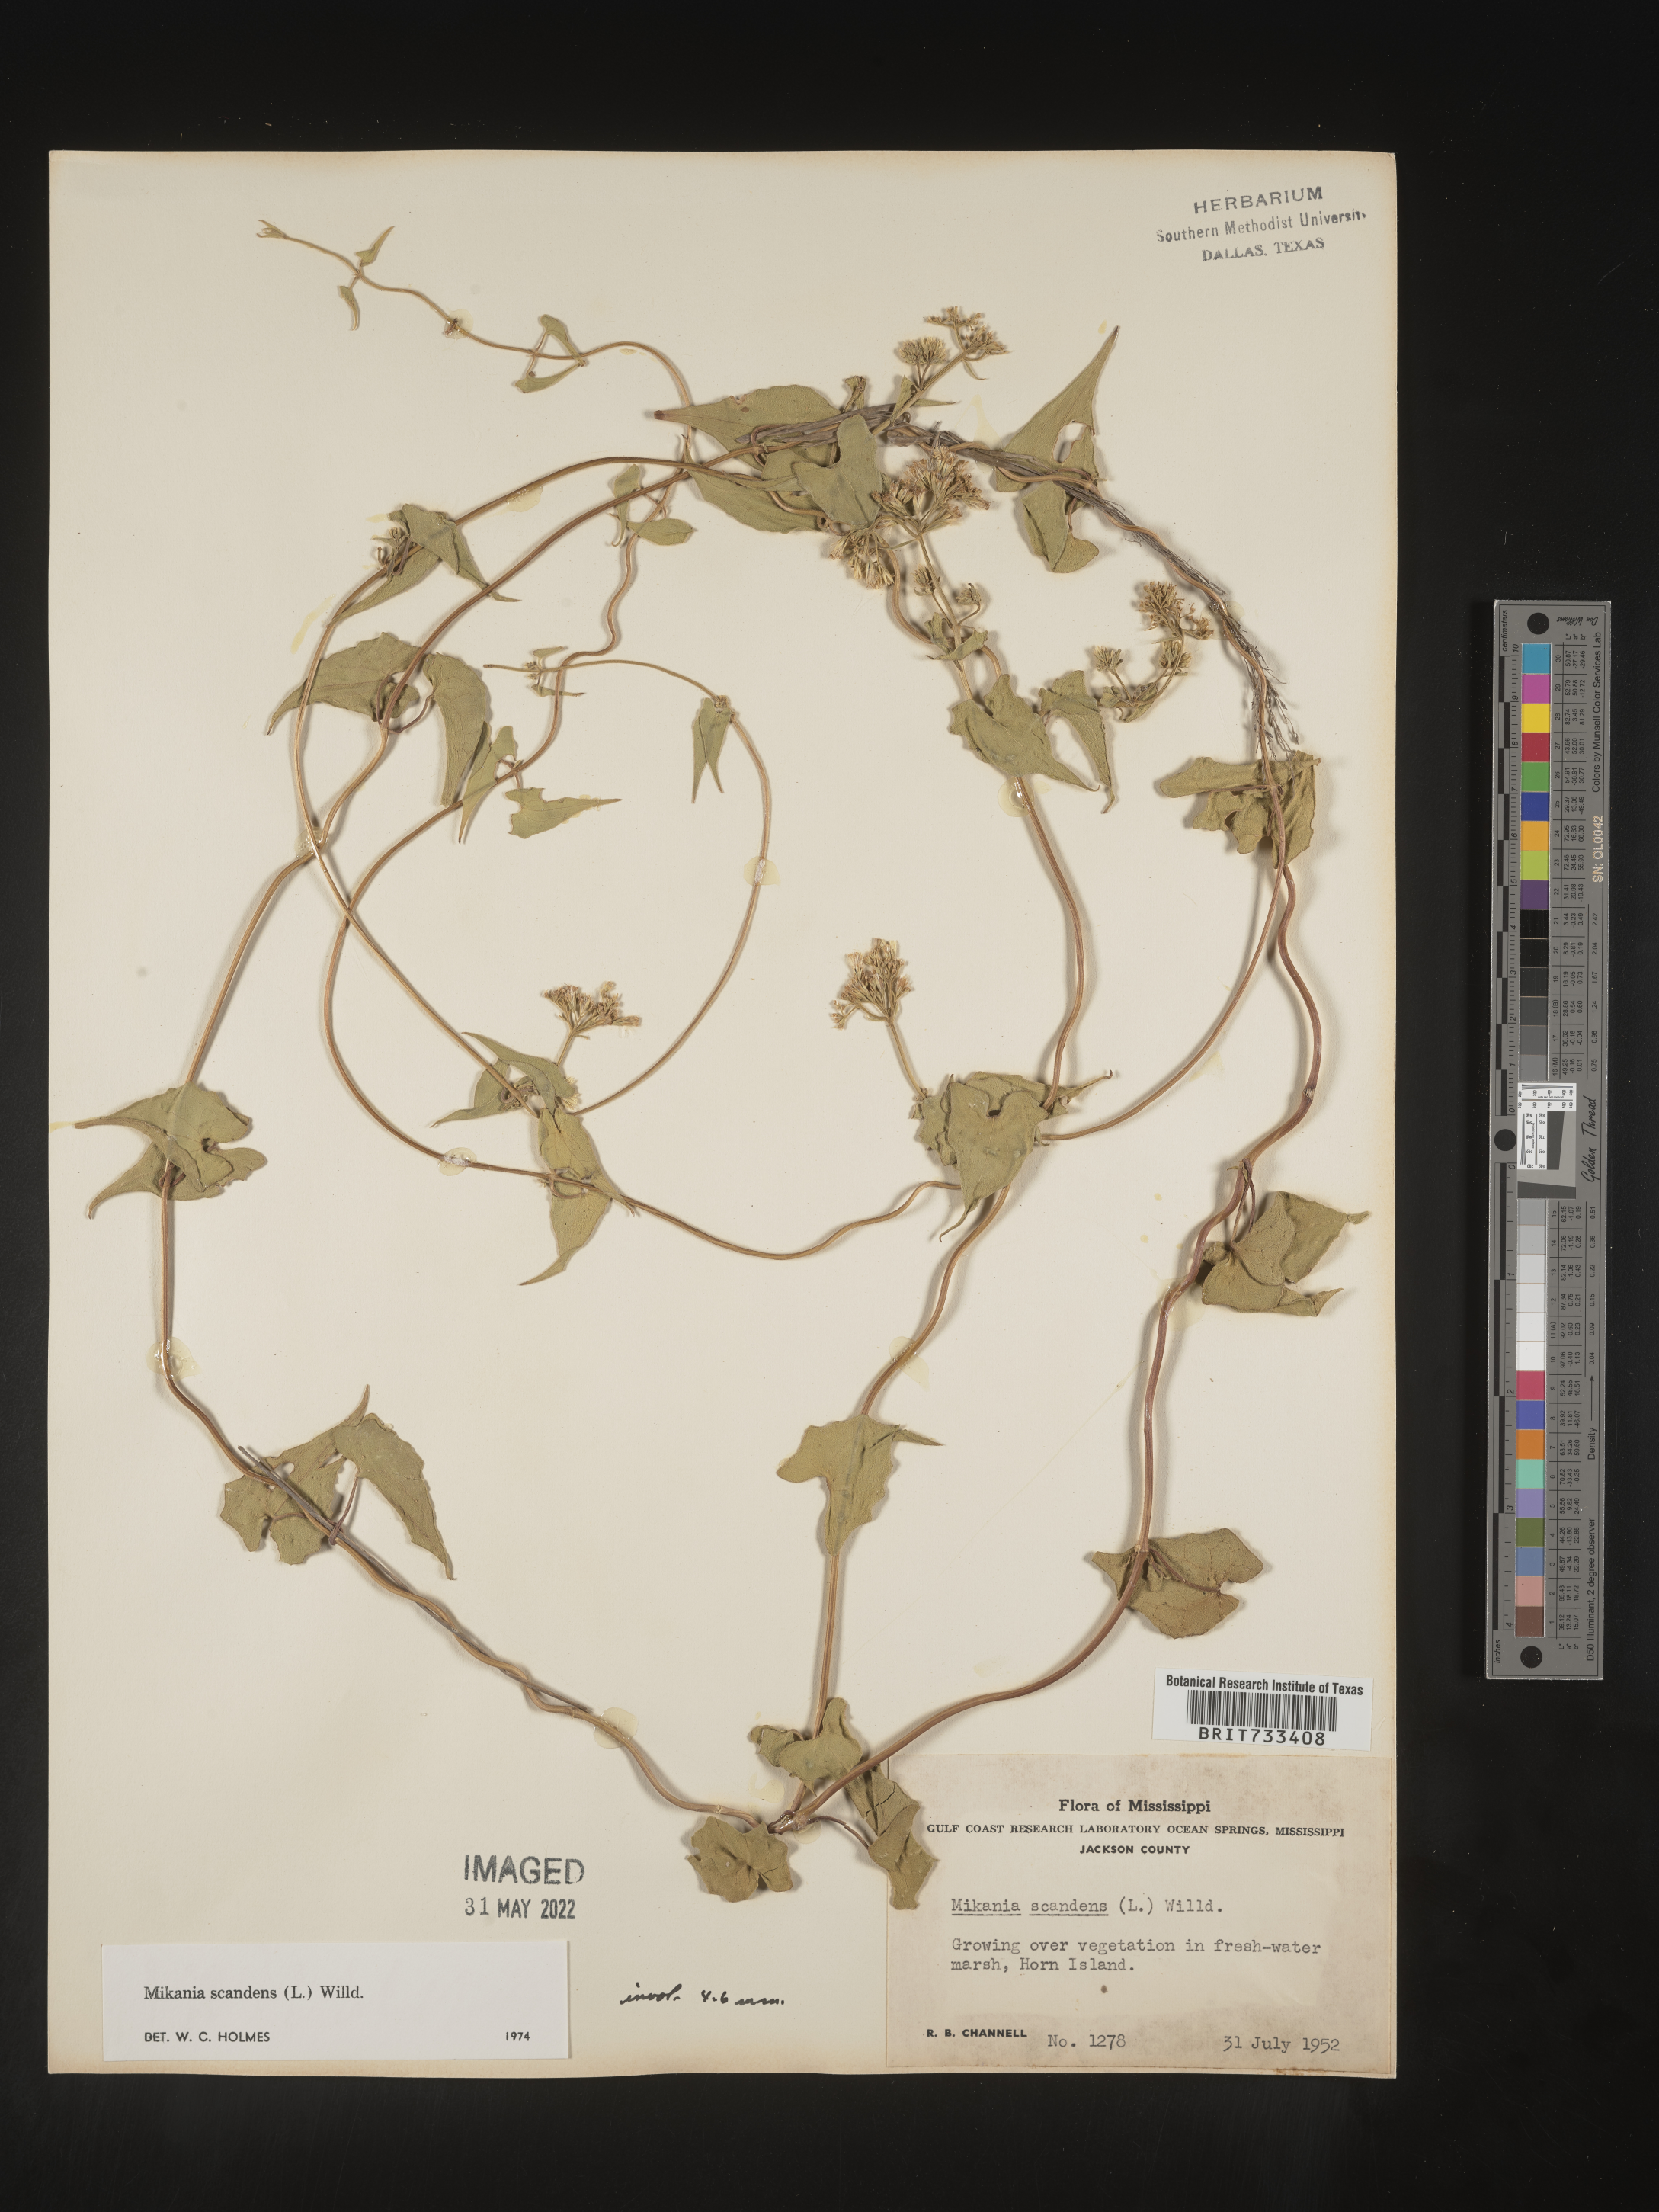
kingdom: Plantae
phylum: Tracheophyta
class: Magnoliopsida
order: Asterales
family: Asteraceae
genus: Mikania
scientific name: Mikania scandens
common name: Climbing hempvine
